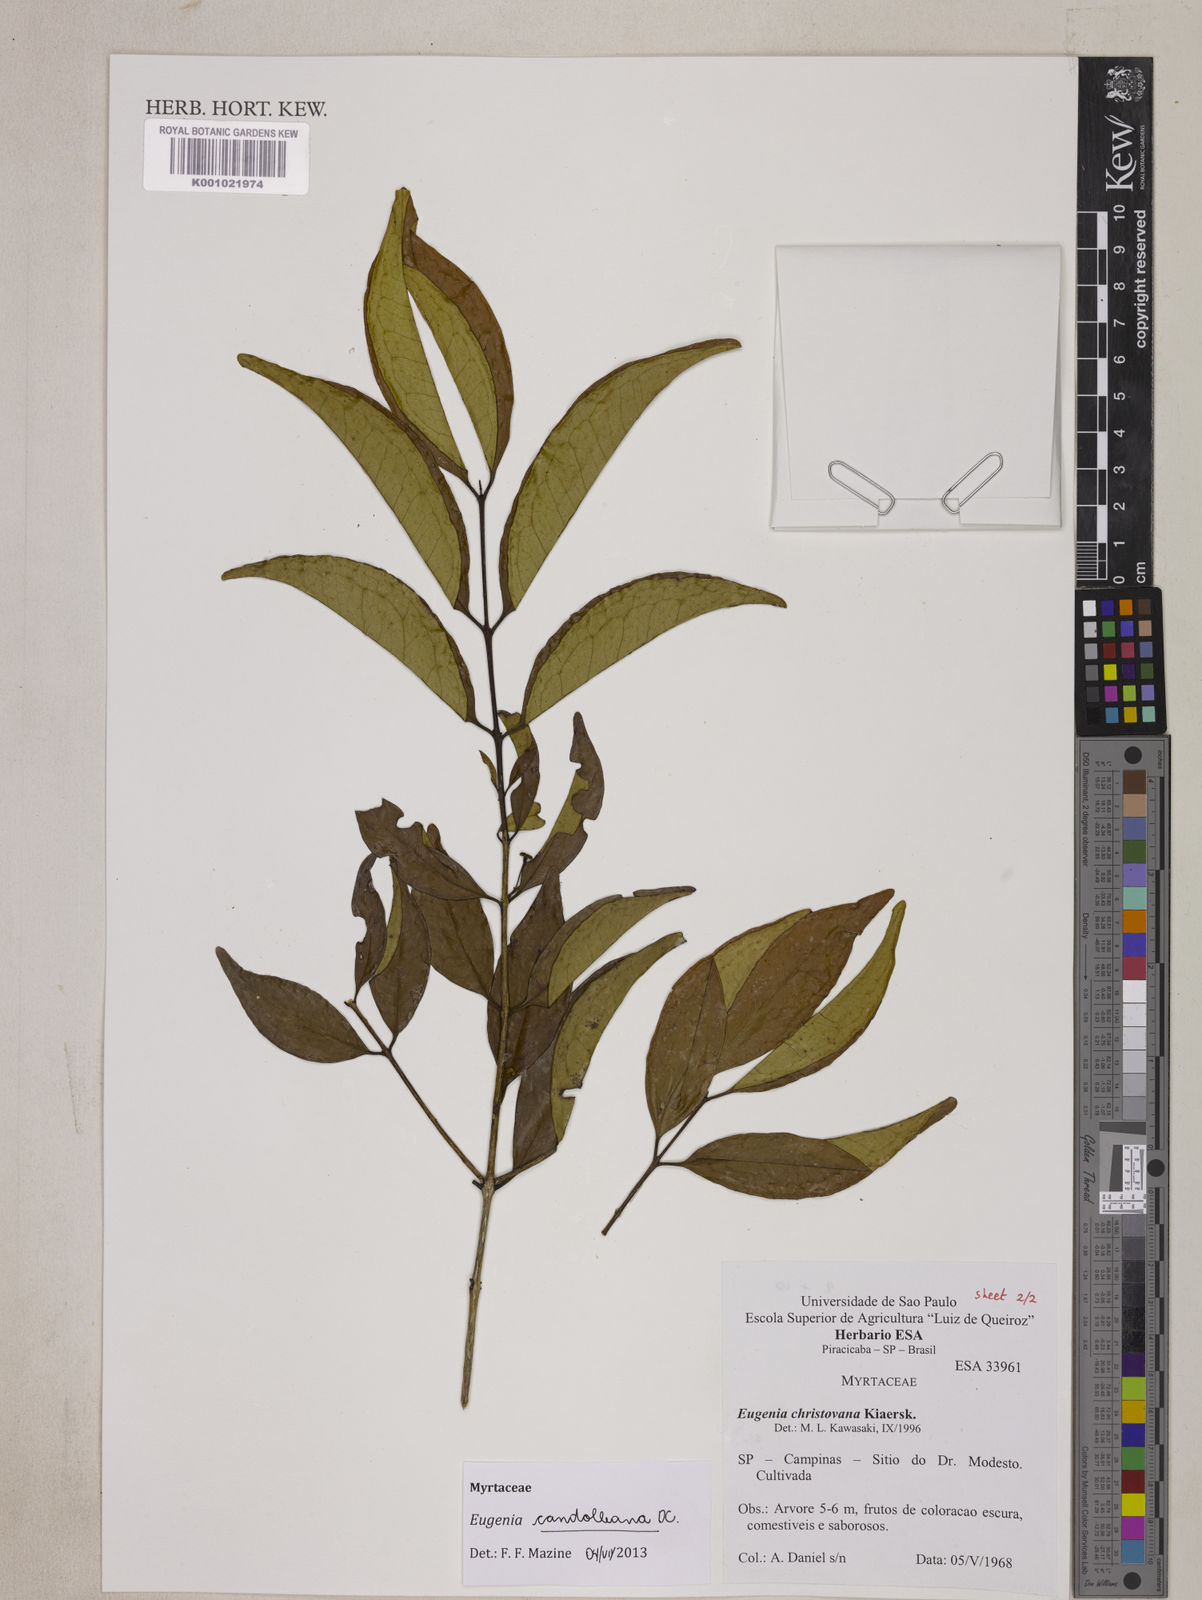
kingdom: Plantae
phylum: Tracheophyta
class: Magnoliopsida
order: Myrtales
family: Myrtaceae
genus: Eugenia
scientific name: Eugenia candolleana
